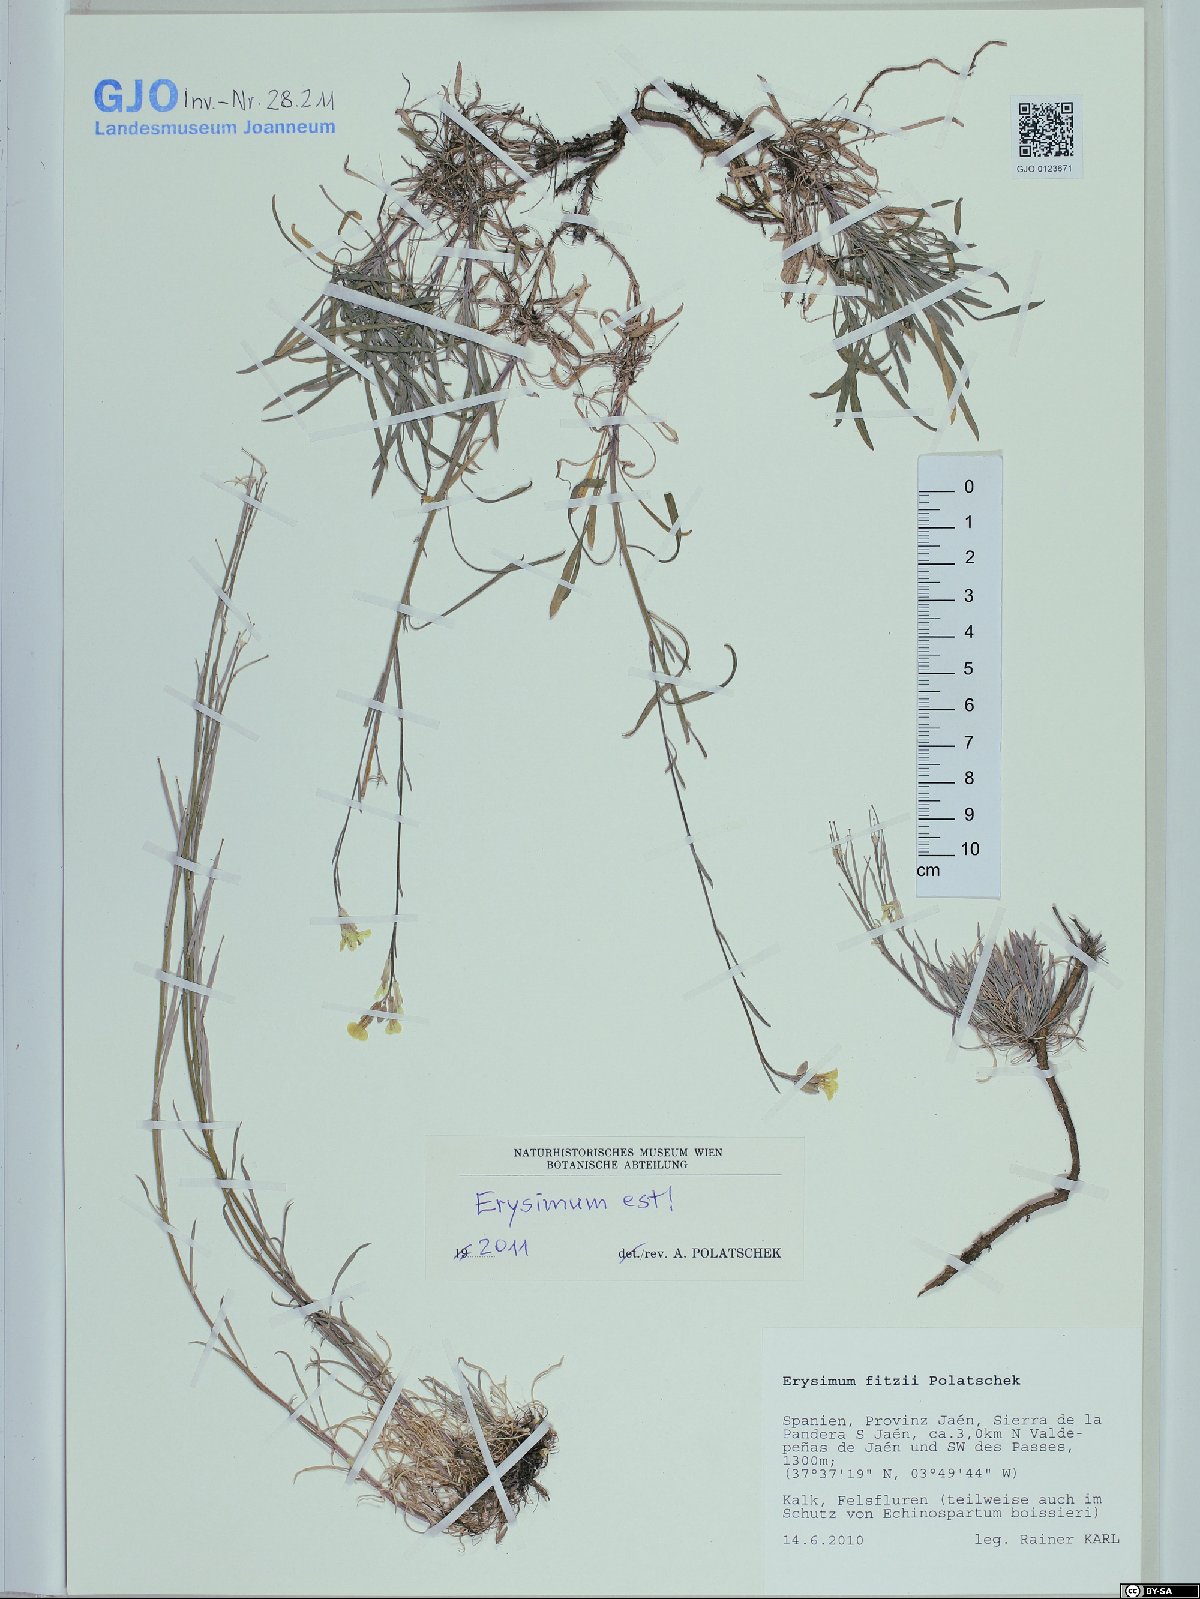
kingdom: Plantae
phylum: Tracheophyta
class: Magnoliopsida
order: Brassicales
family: Brassicaceae
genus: Erysimum
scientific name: Erysimum nevadense
